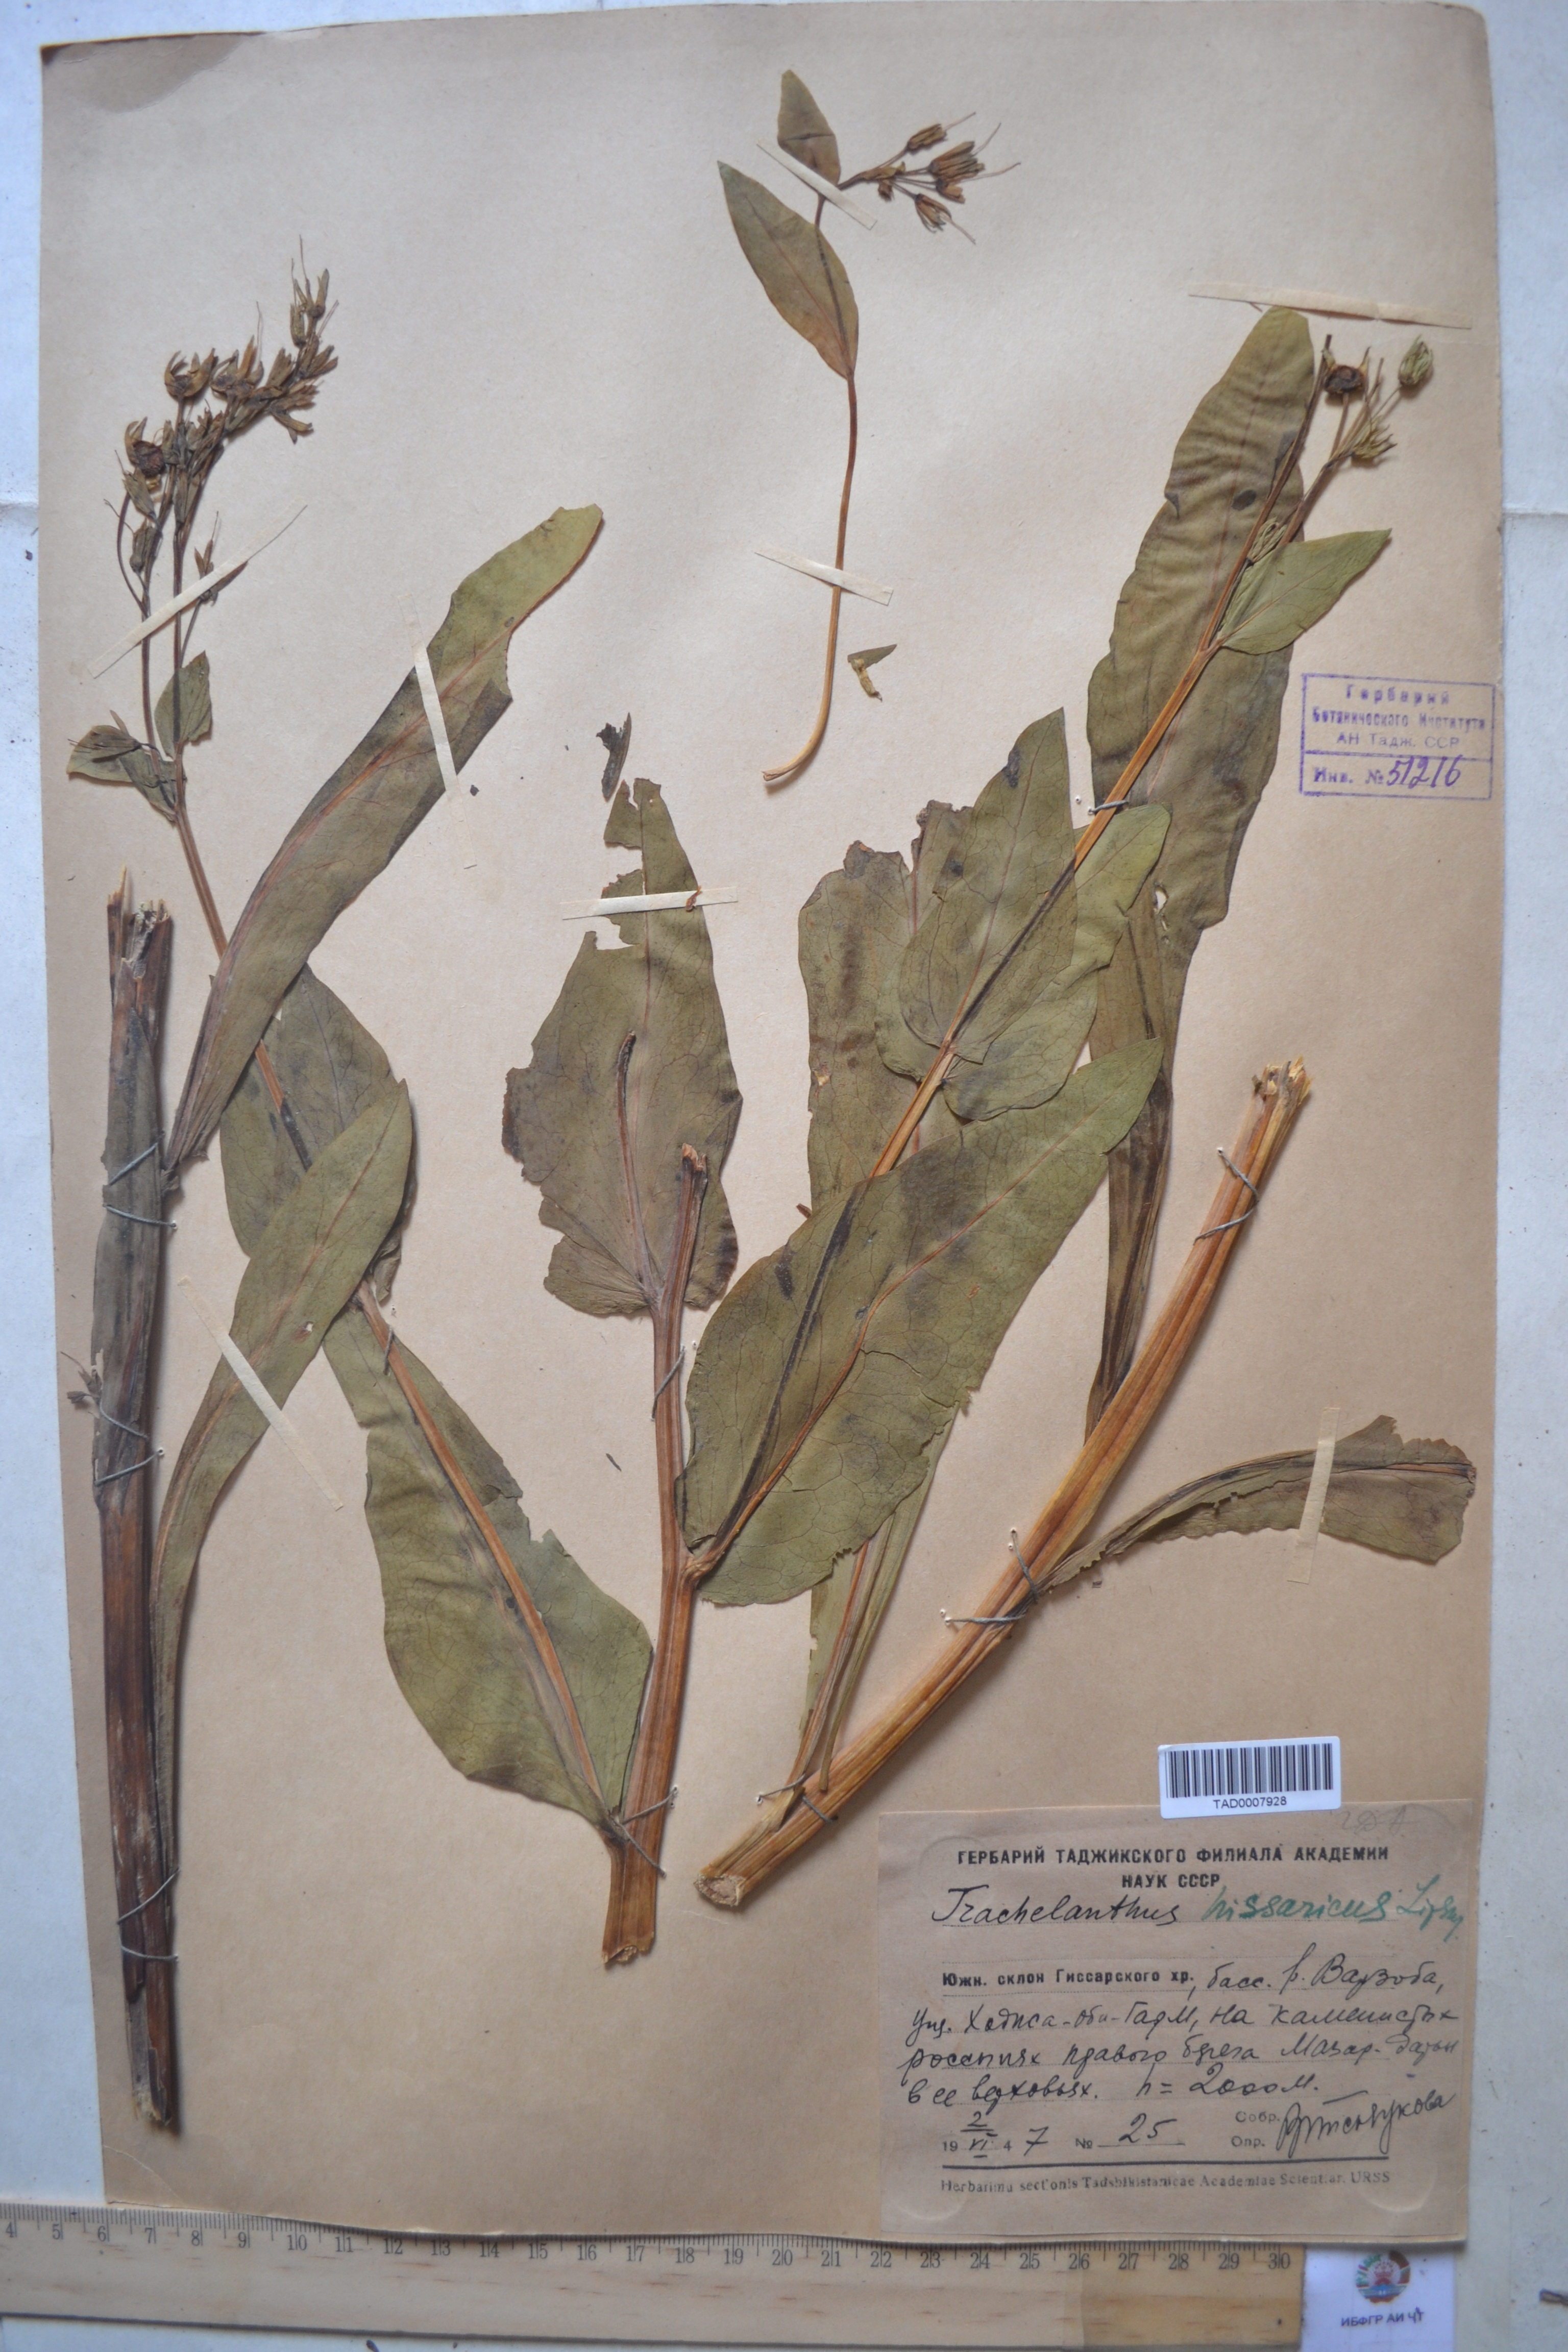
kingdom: Plantae
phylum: Tracheophyta
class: Magnoliopsida
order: Boraginales
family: Boraginaceae
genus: Lindelofia
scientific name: Lindelofia hissarica
